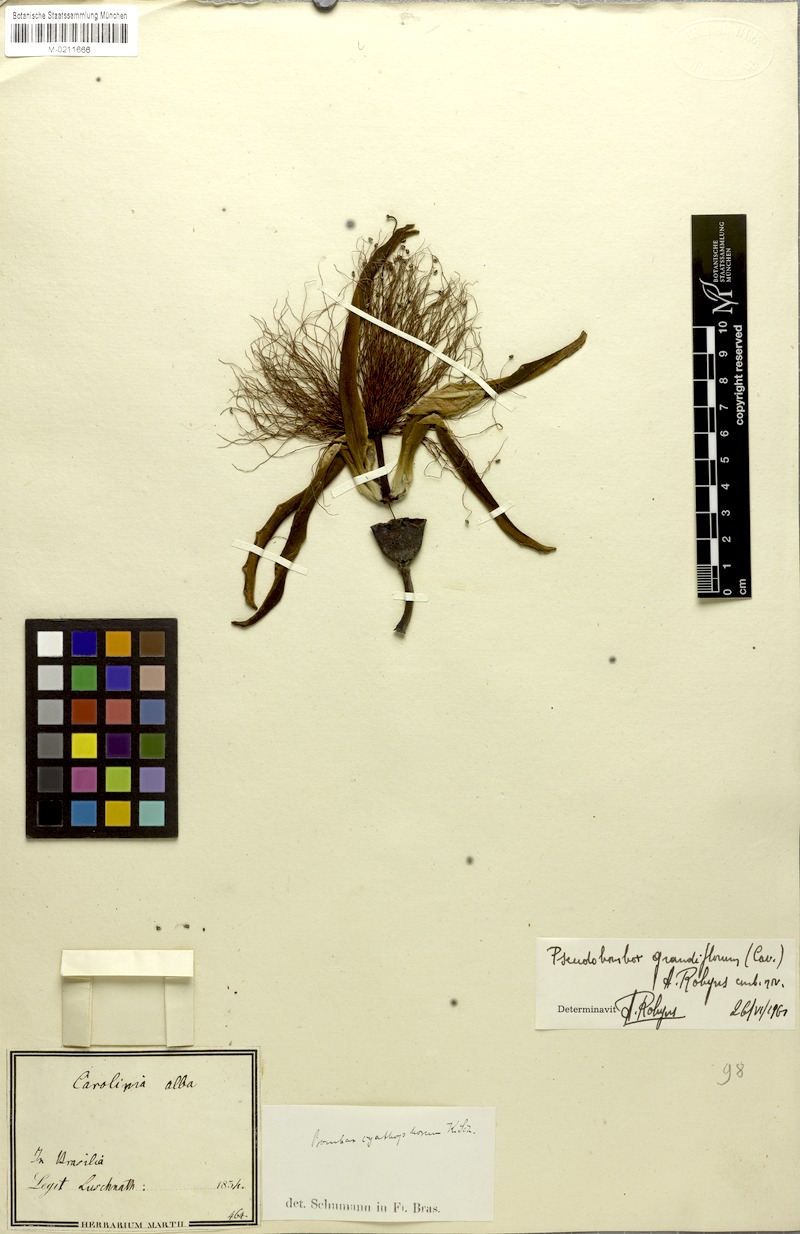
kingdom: Plantae
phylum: Tracheophyta
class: Magnoliopsida
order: Malvales
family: Malvaceae
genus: Pseudobombax
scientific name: Pseudobombax grandiflorum
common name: Brazilian shaving-brush-tree
